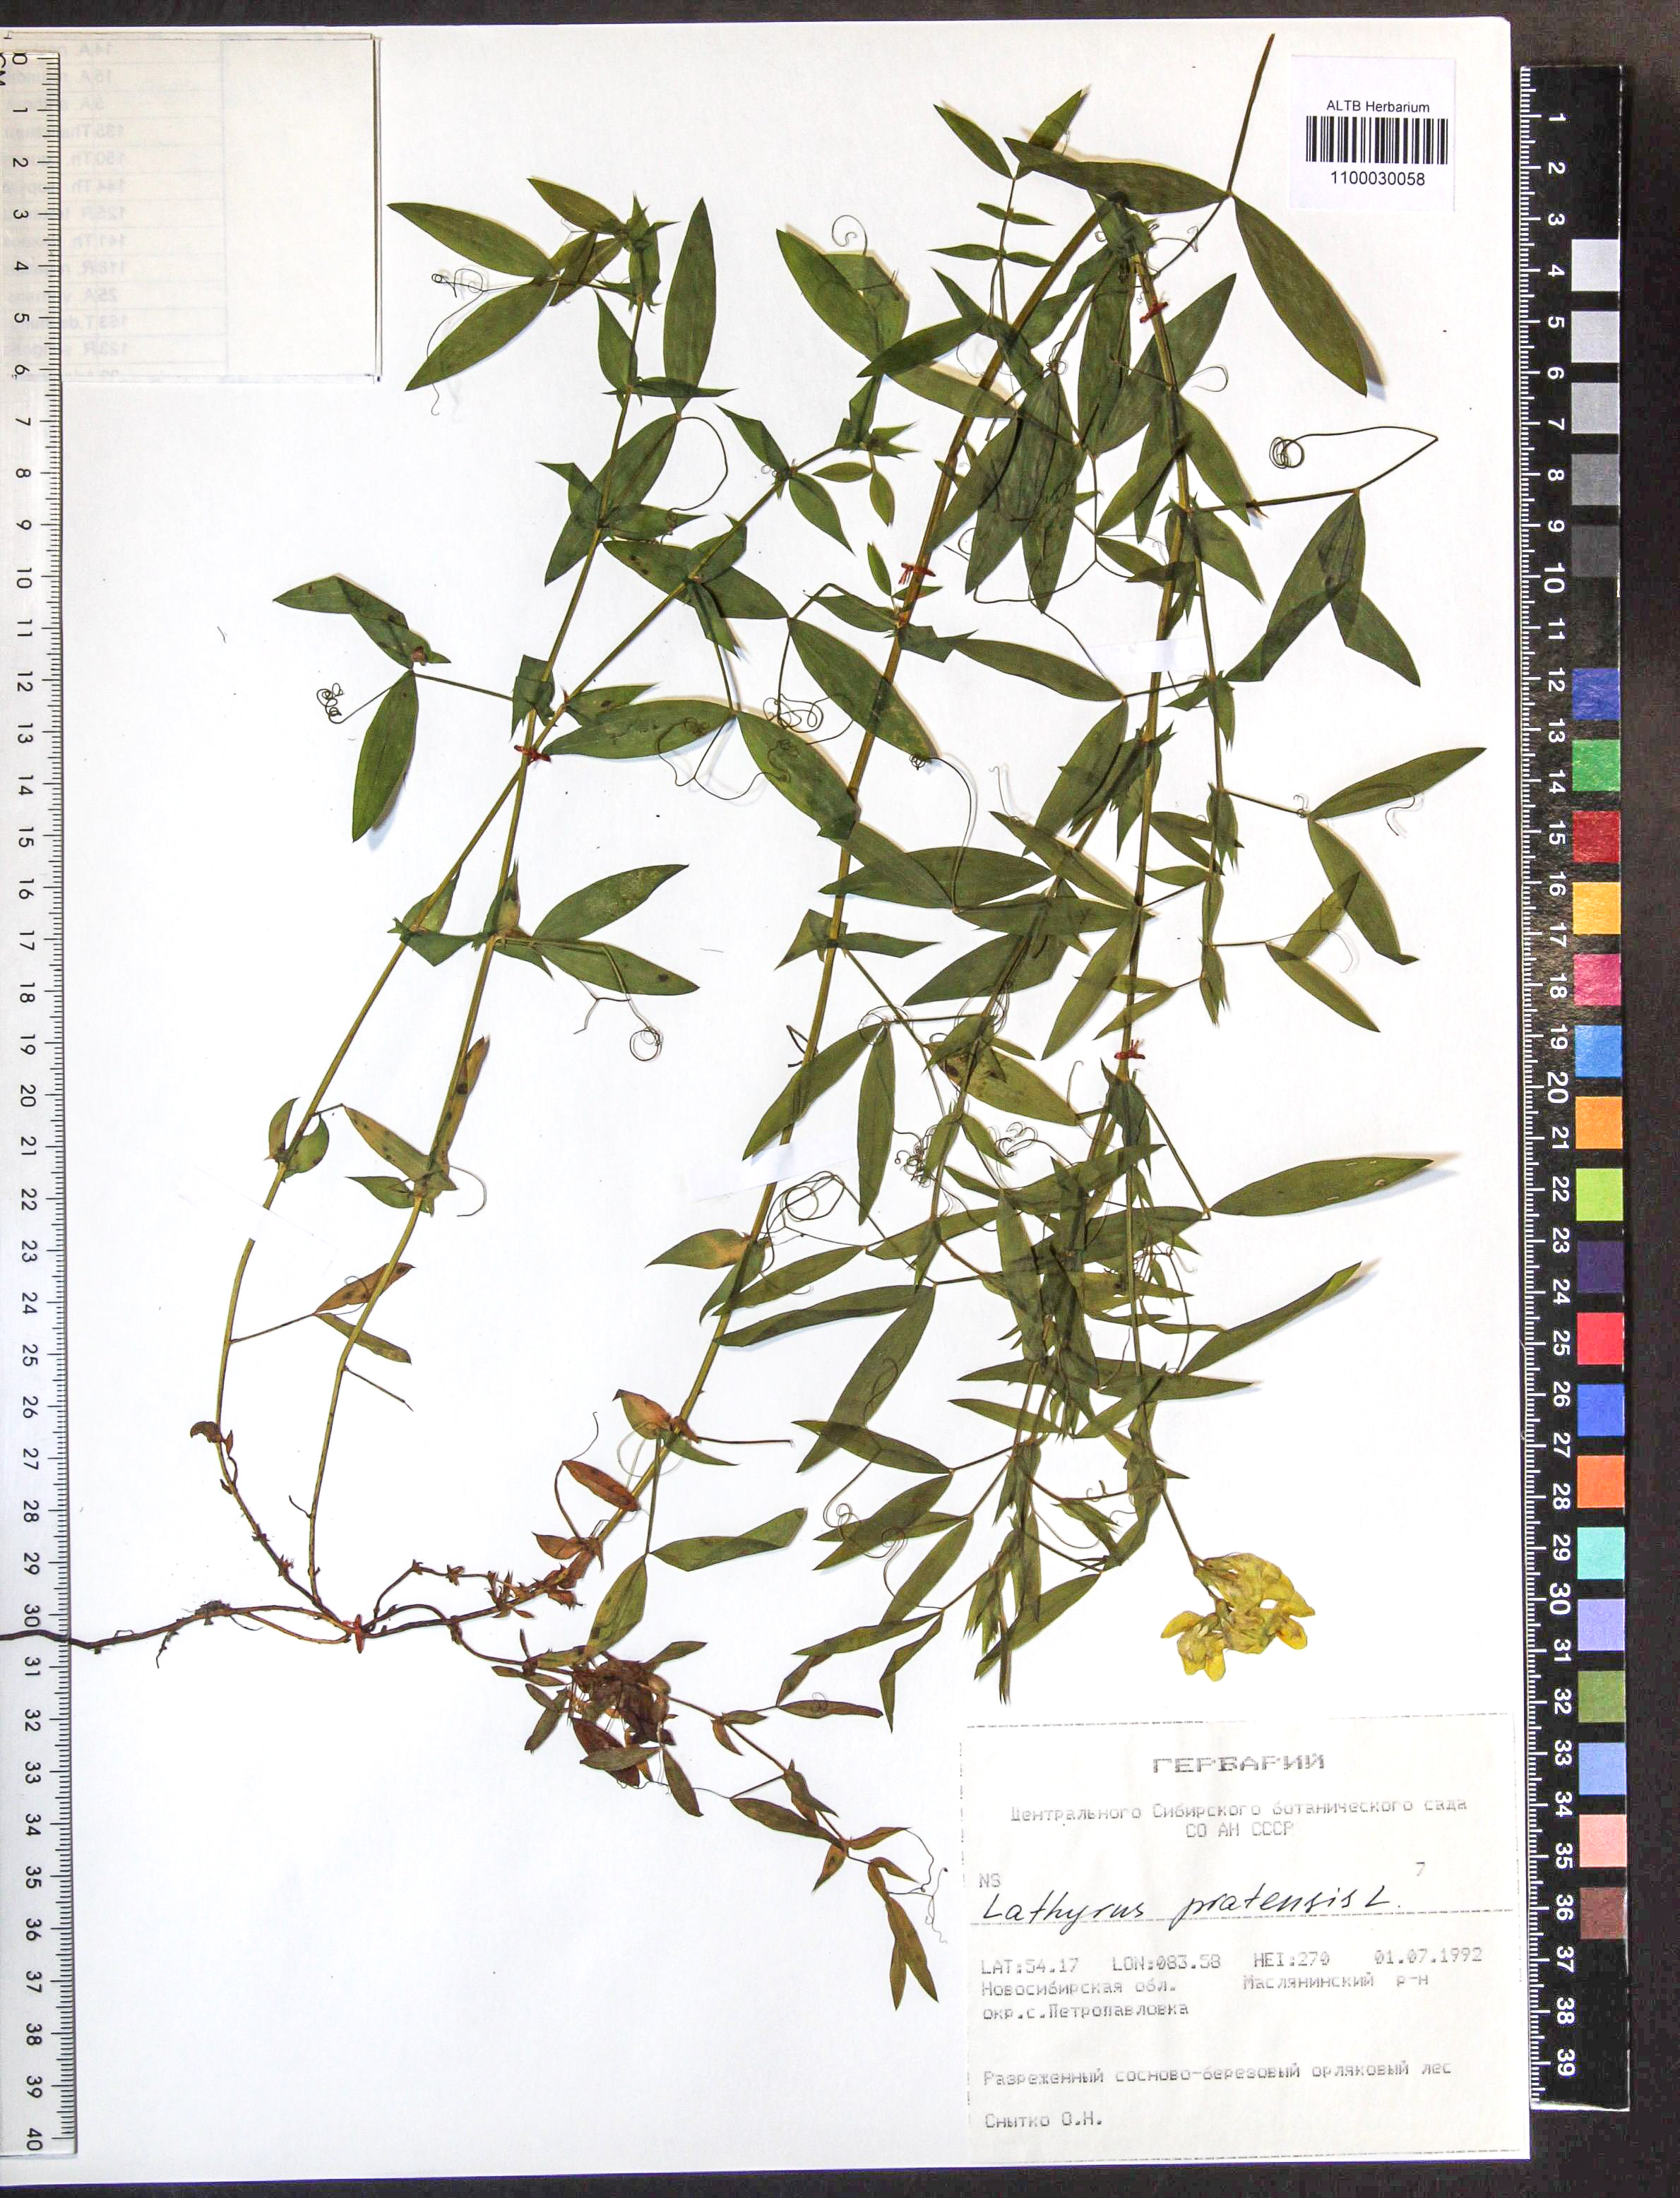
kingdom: Plantae
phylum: Tracheophyta
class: Magnoliopsida
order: Fabales
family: Fabaceae
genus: Lathyrus
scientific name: Lathyrus pratensis
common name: Meadow vetchling
